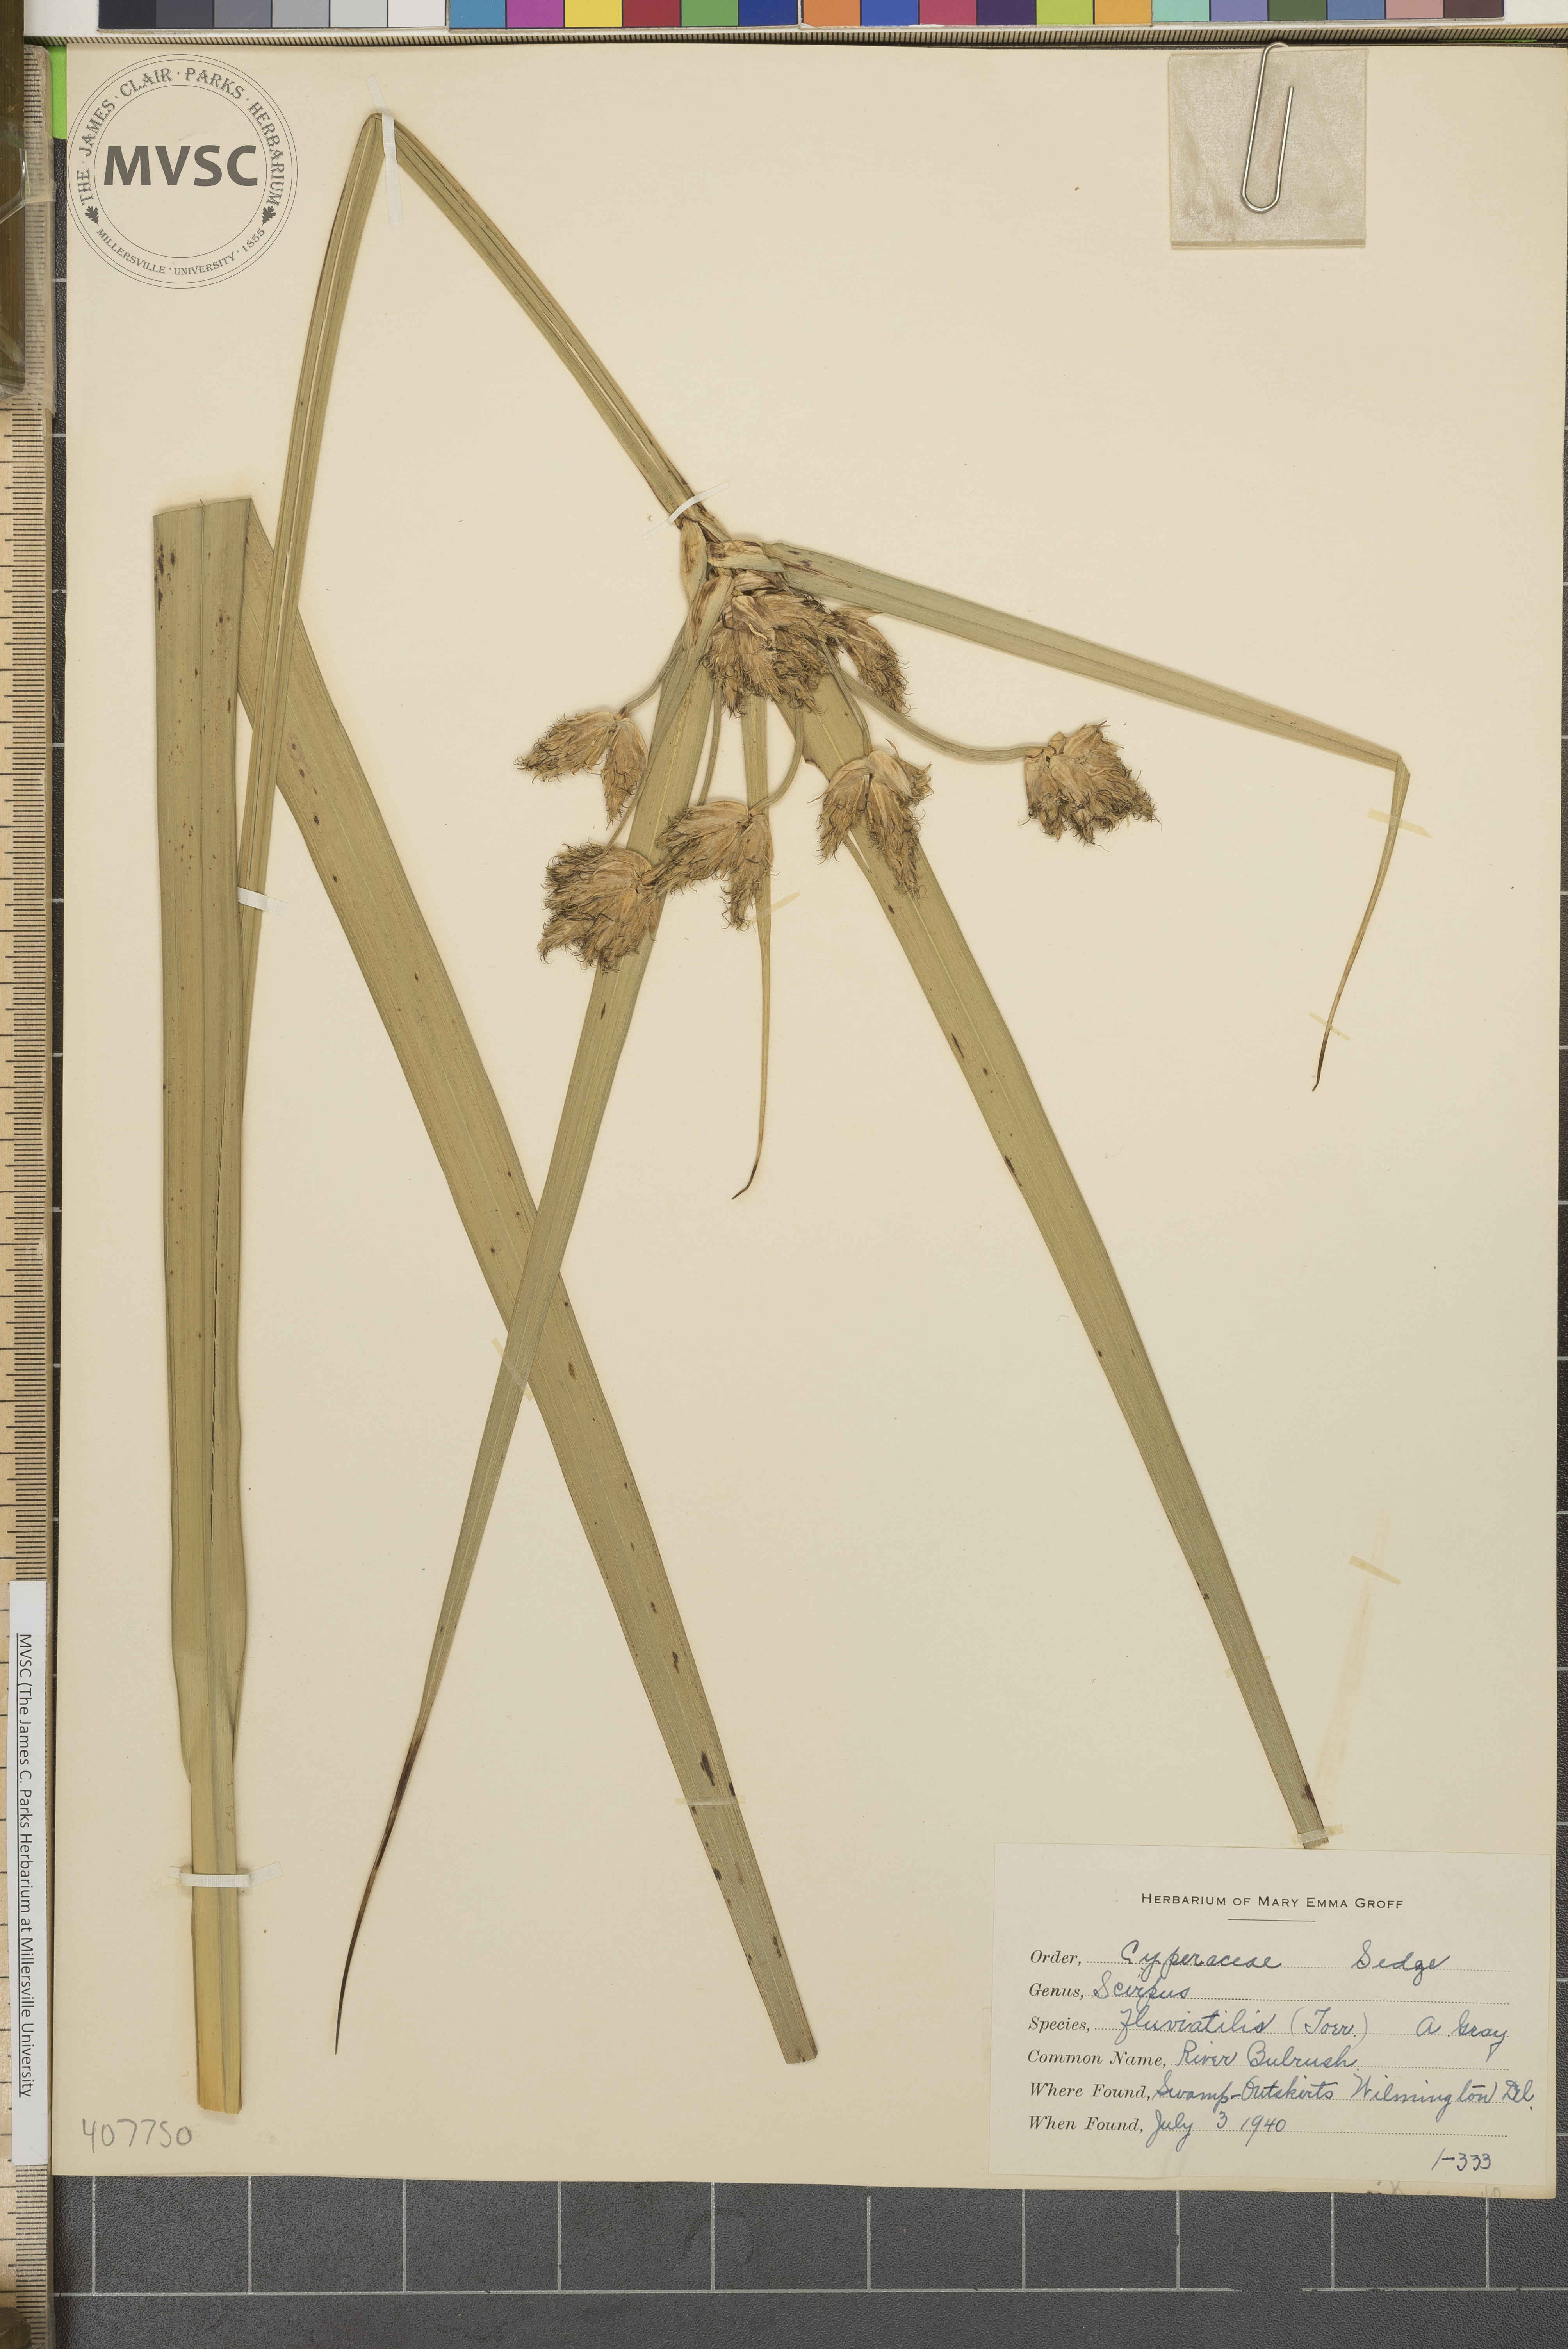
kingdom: Plantae
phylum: Tracheophyta
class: Liliopsida
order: Poales
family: Cyperaceae
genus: Bolboschoenus
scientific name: Bolboschoenus fluviatilis
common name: River Bulrush
